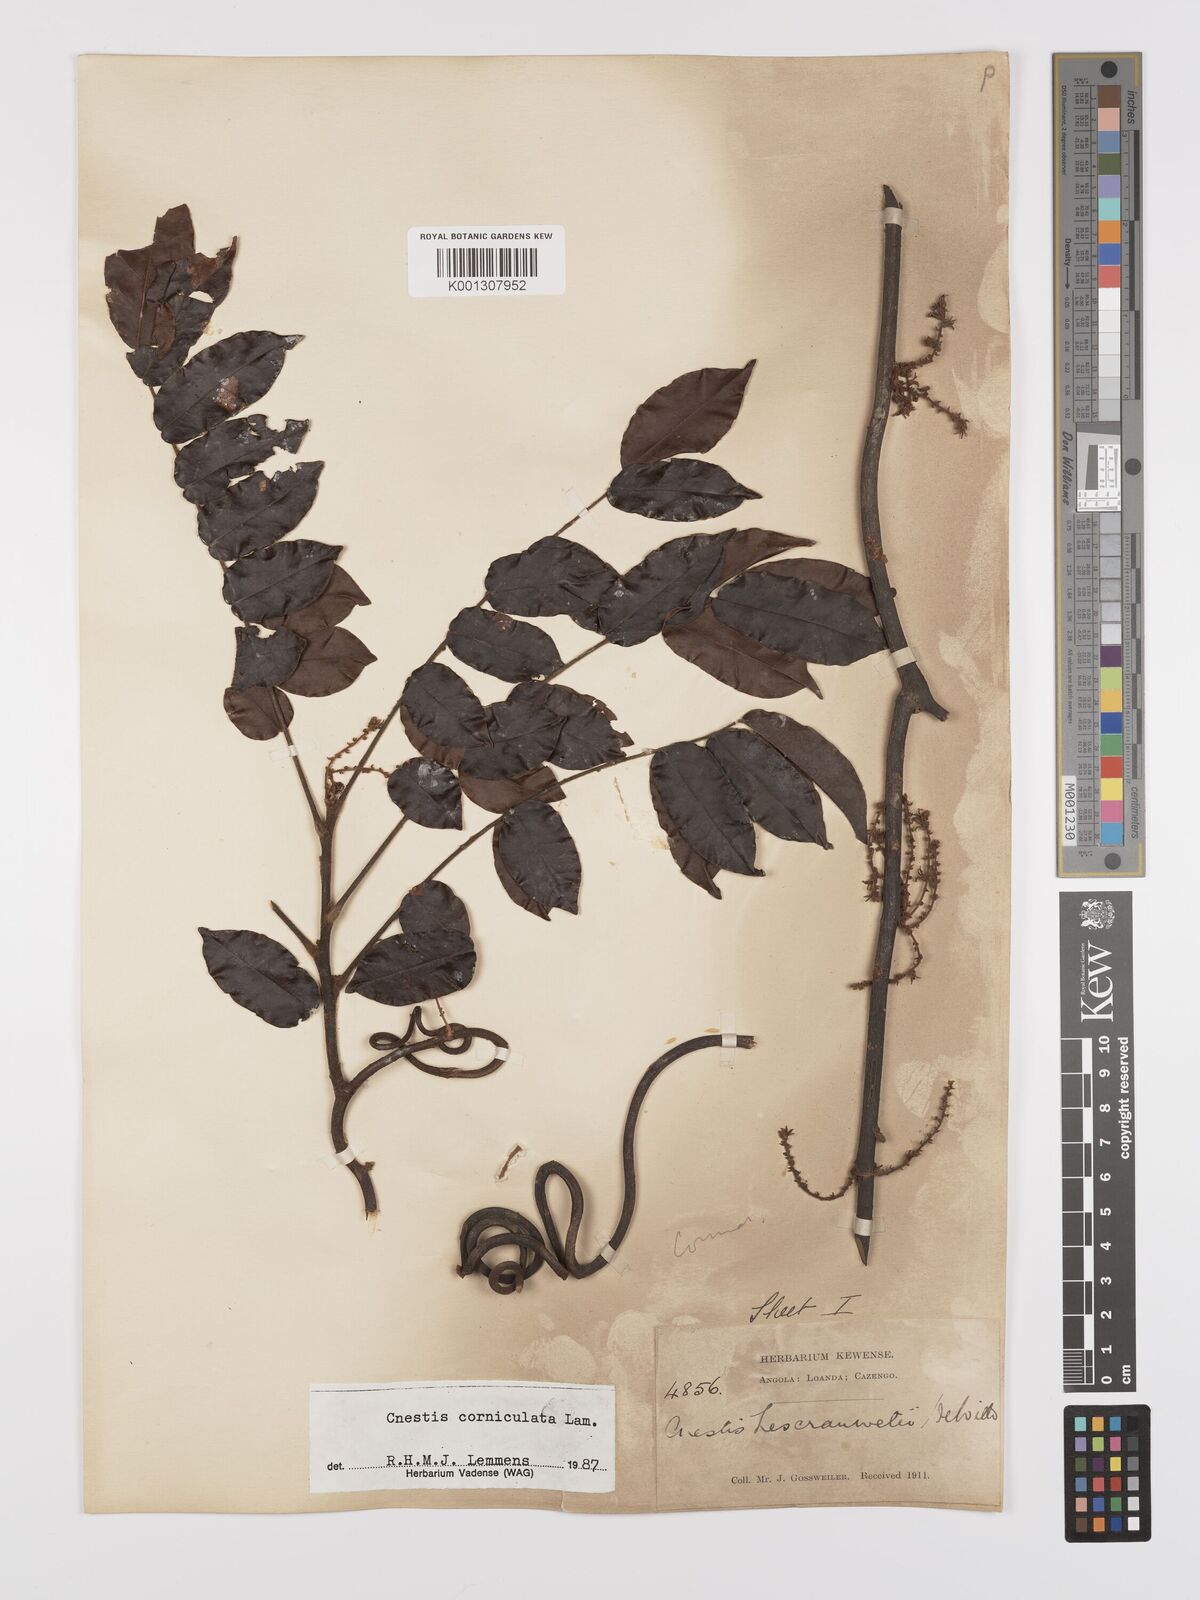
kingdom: Plantae
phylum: Tracheophyta
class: Magnoliopsida
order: Oxalidales
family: Connaraceae
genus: Cnestis
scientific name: Cnestis corniculata
